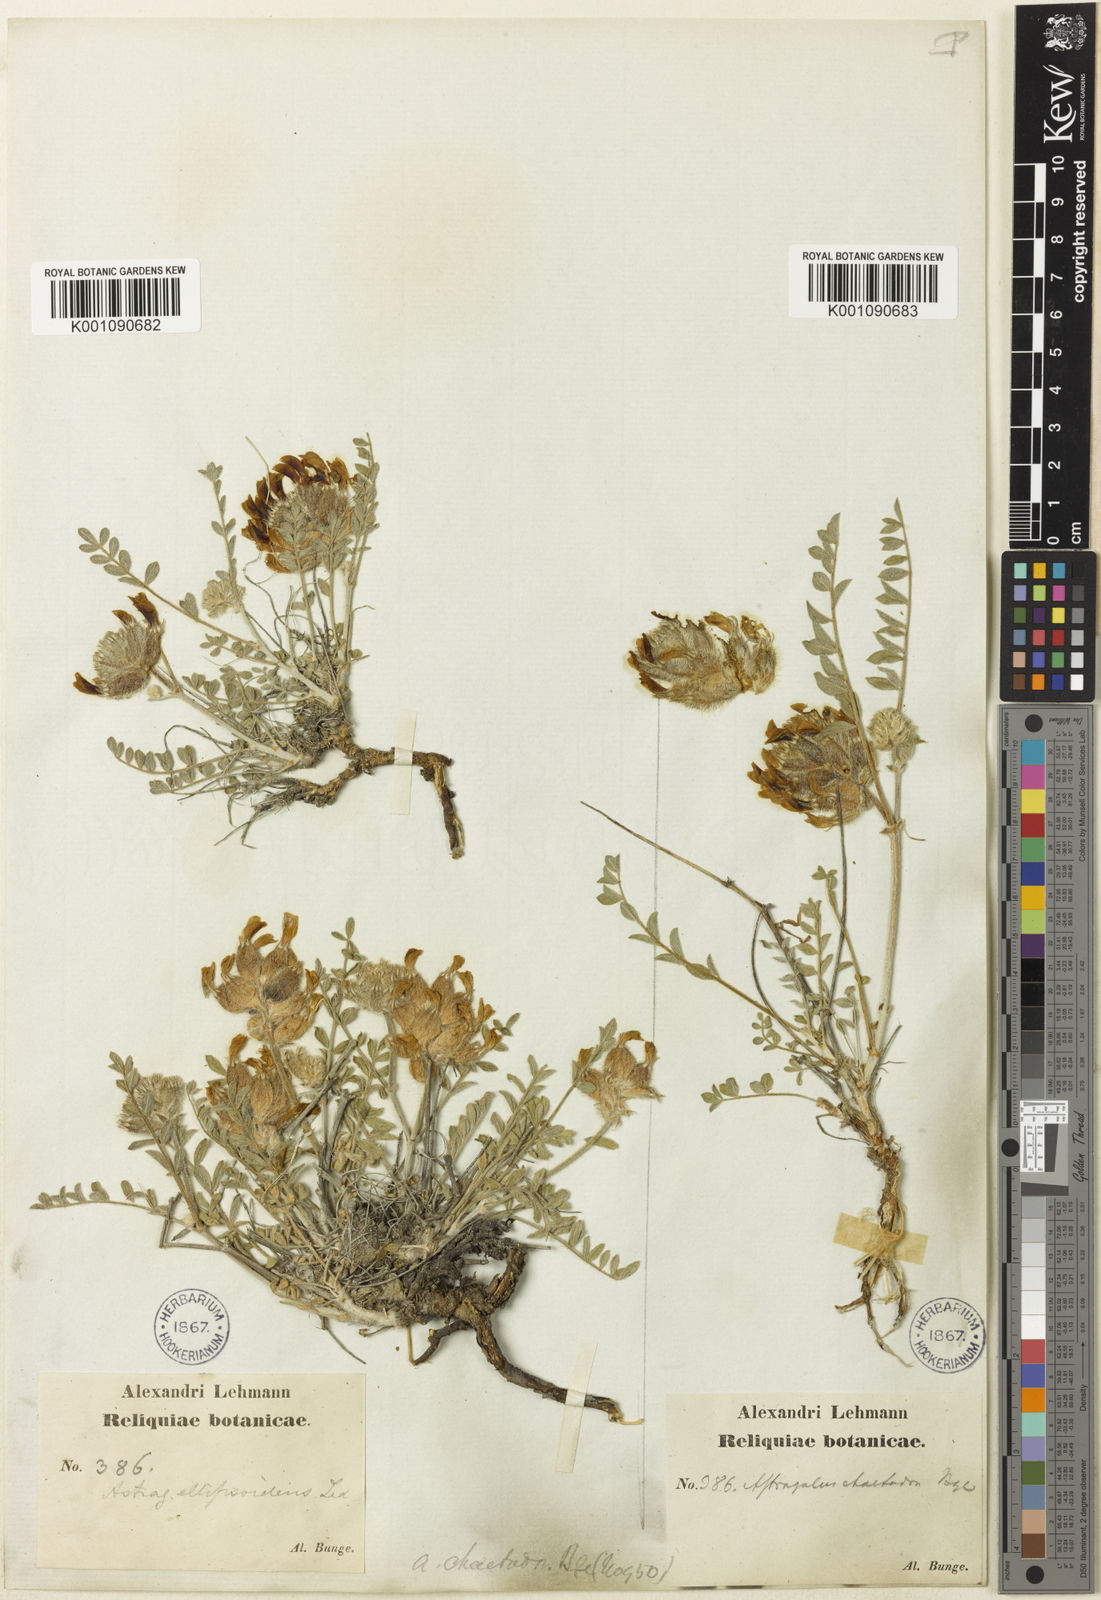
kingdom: Plantae
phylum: Tracheophyta
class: Magnoliopsida
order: Fabales
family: Fabaceae
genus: Astragalus
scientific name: Astragalus
